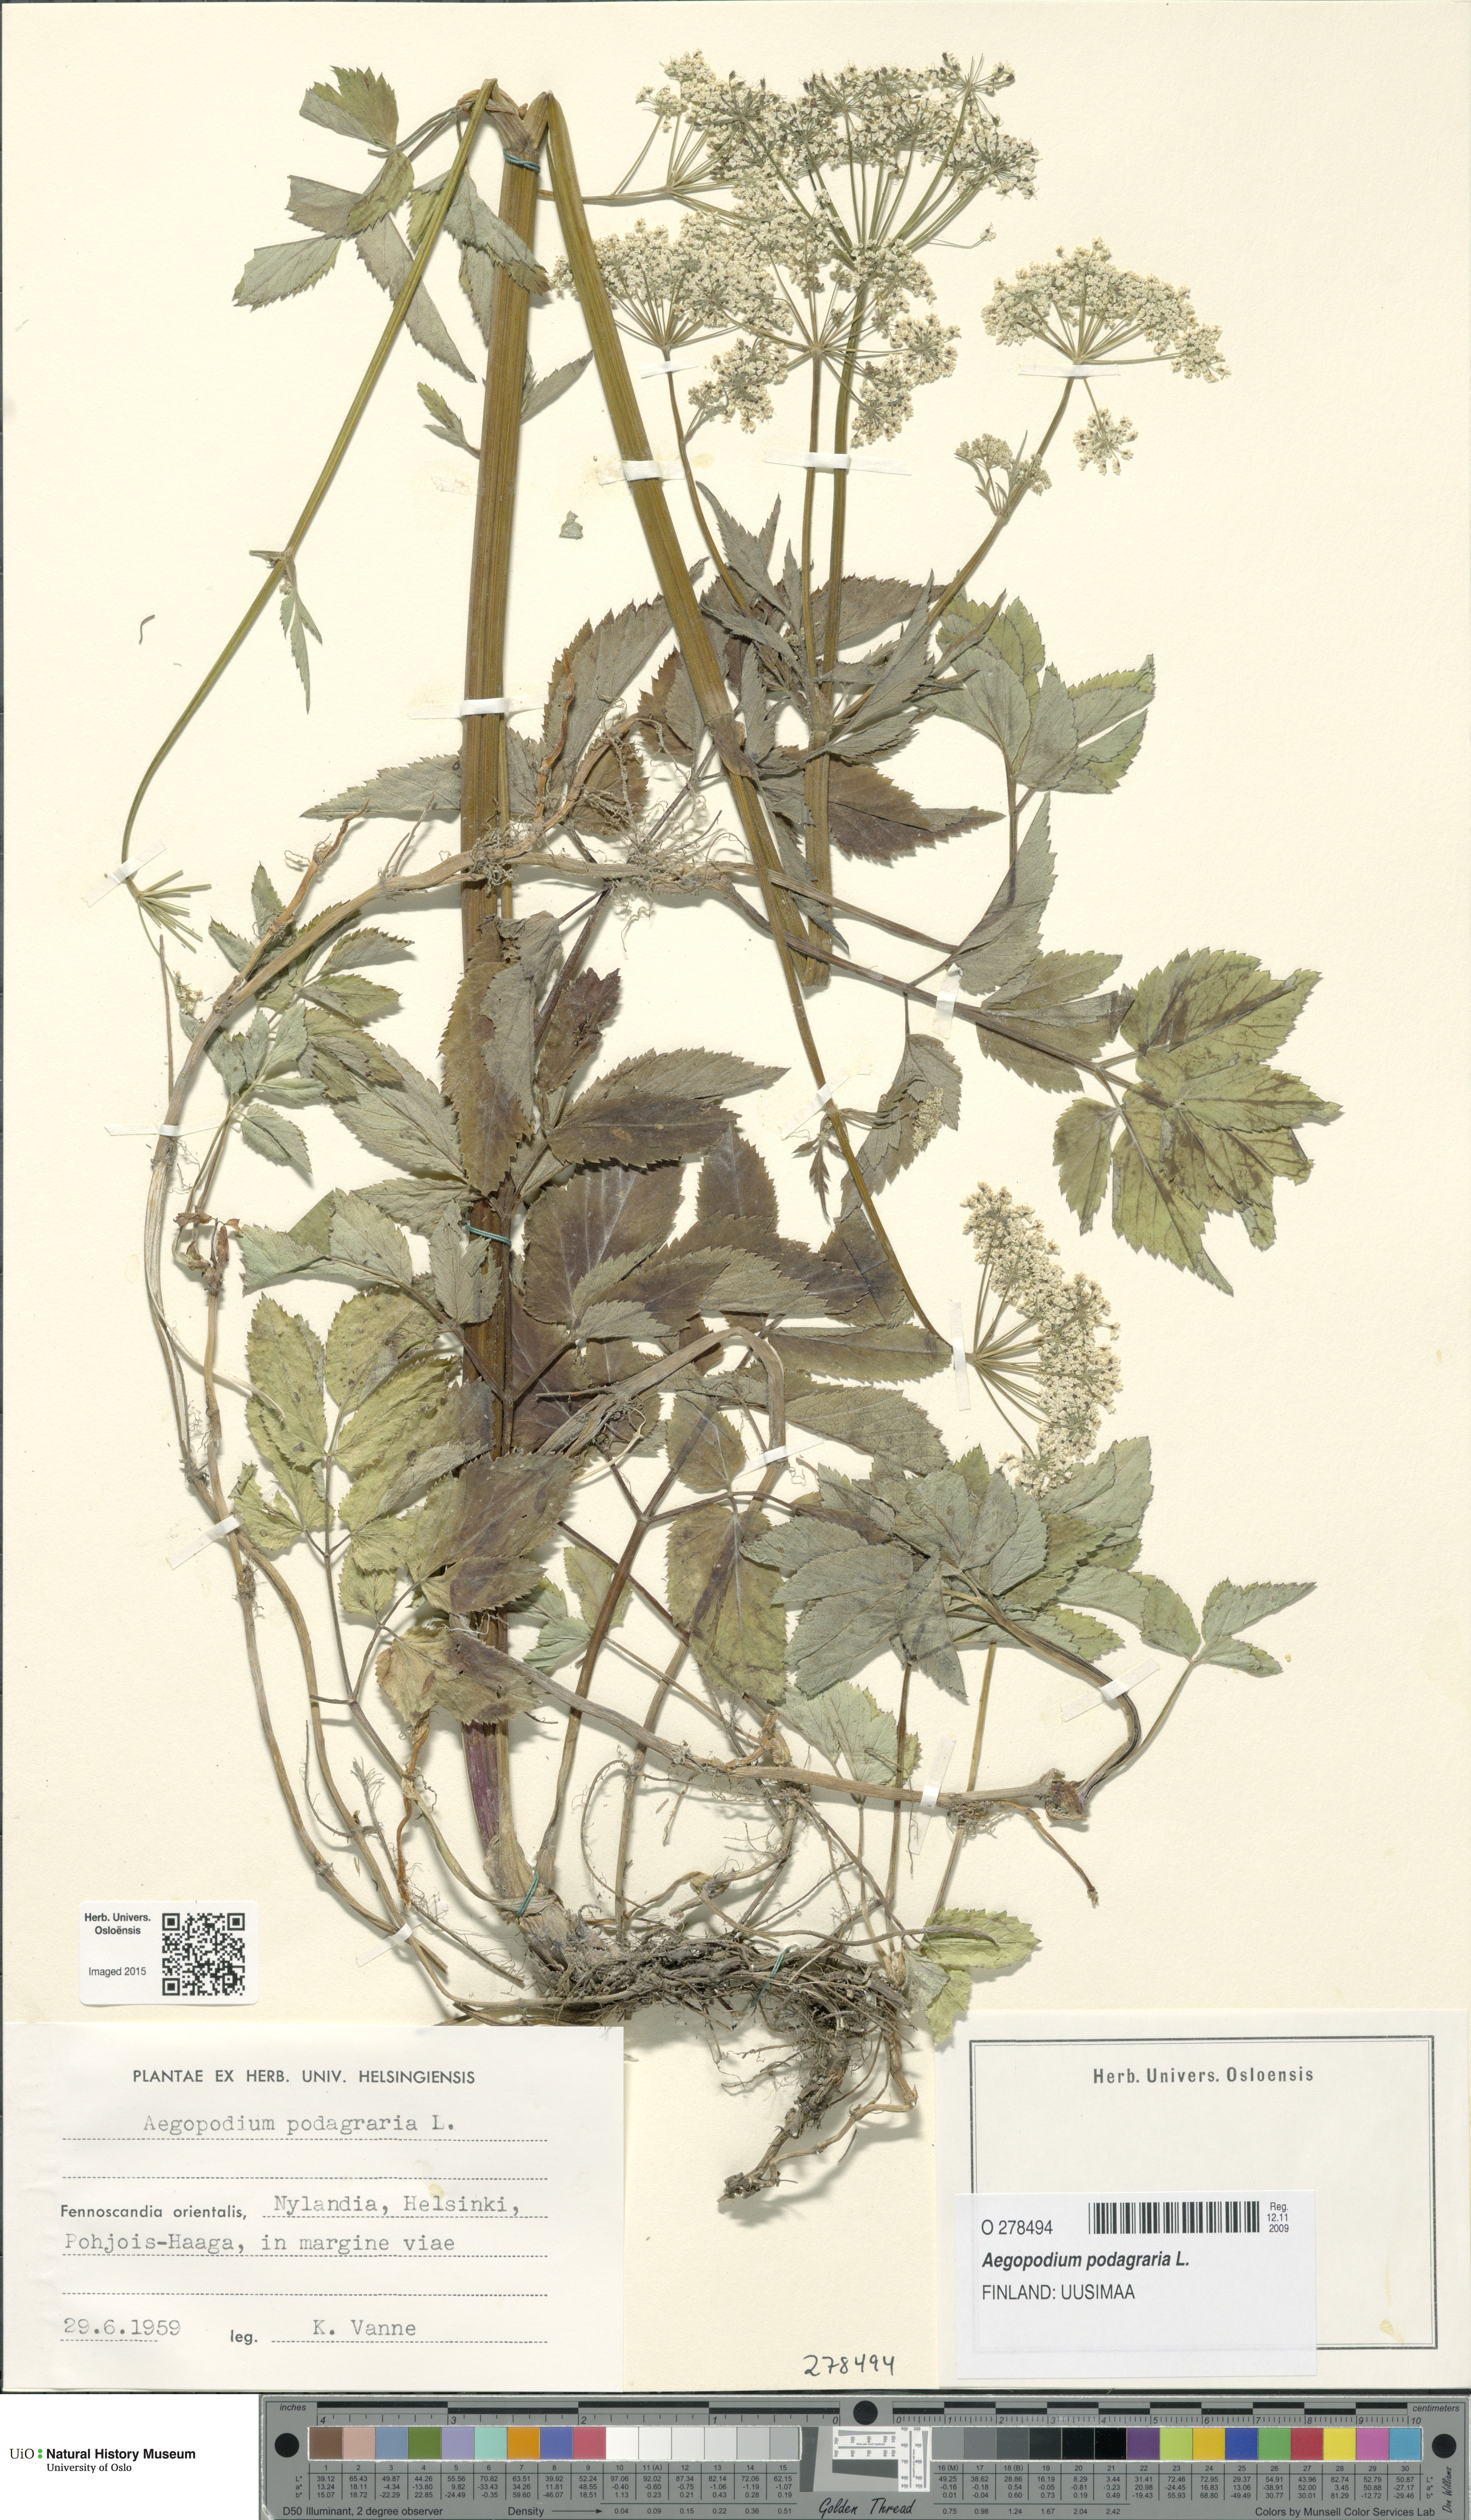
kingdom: Plantae
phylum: Tracheophyta
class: Magnoliopsida
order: Apiales
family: Apiaceae
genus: Aegopodium
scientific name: Aegopodium podagraria
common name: Ground-elder
